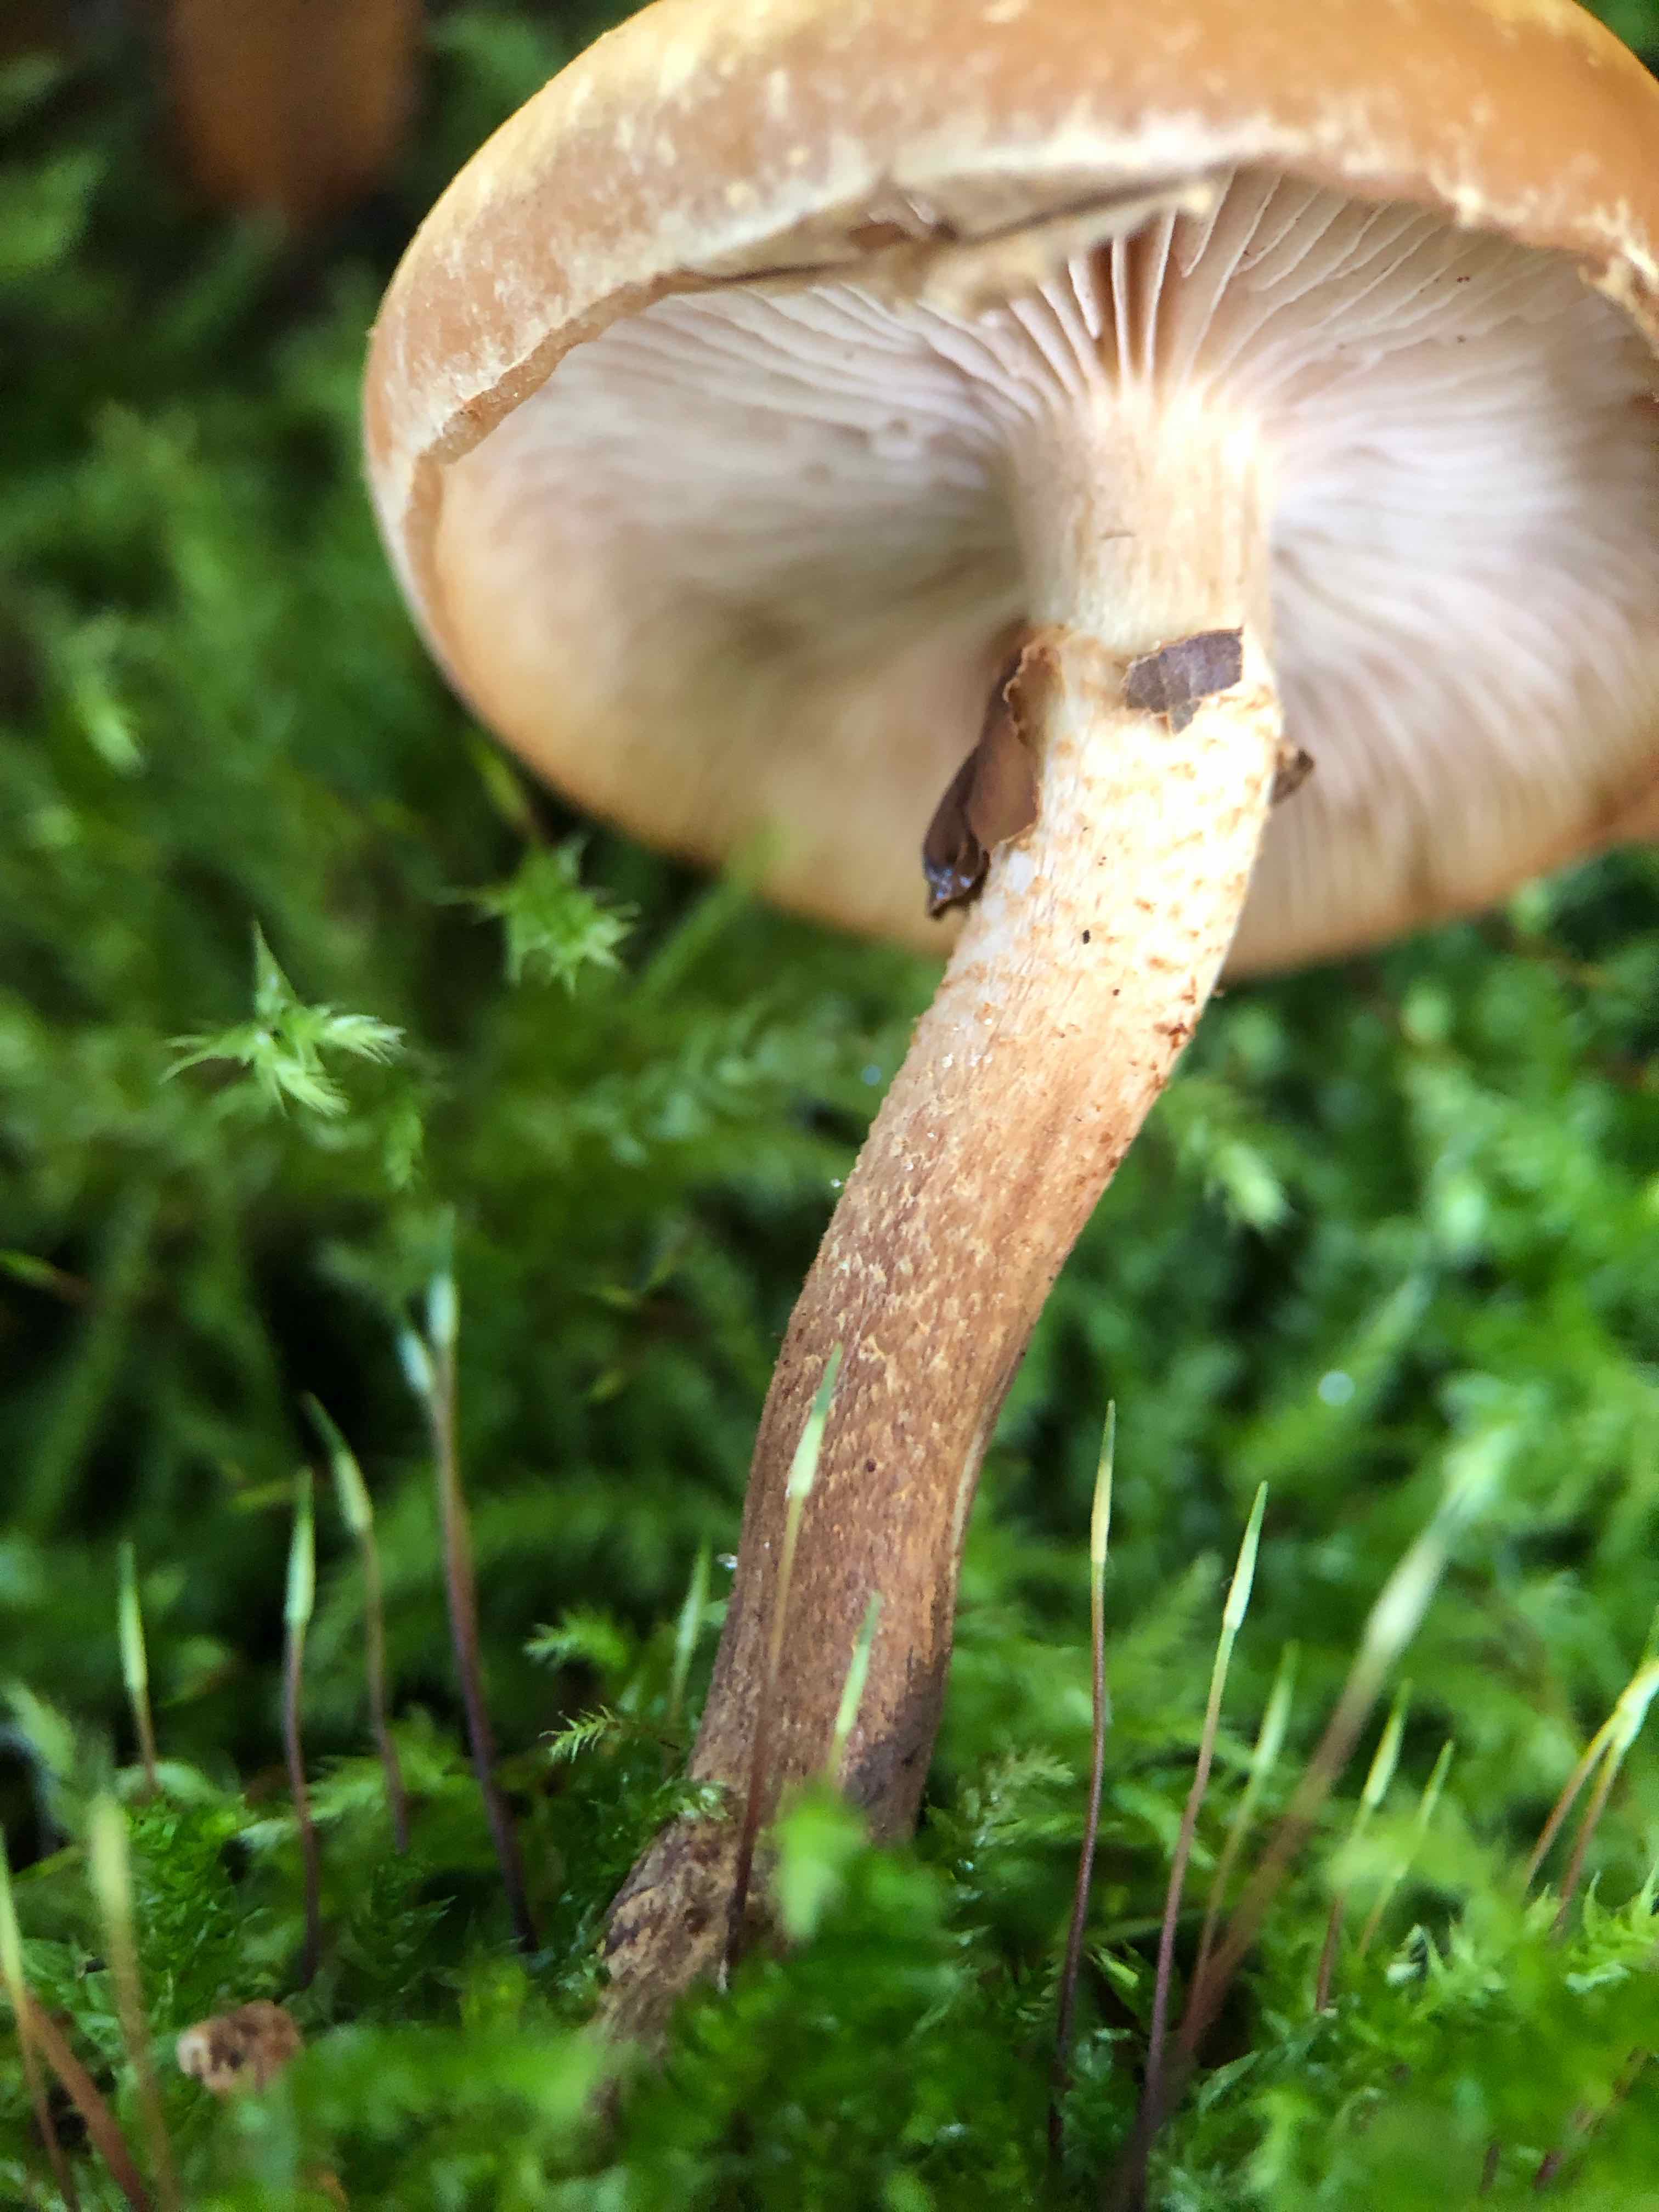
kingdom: Fungi
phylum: Basidiomycota
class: Agaricomycetes
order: Agaricales
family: Strophariaceae
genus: Kuehneromyces
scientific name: Kuehneromyces mutabilis
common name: foranderlig skælhat
